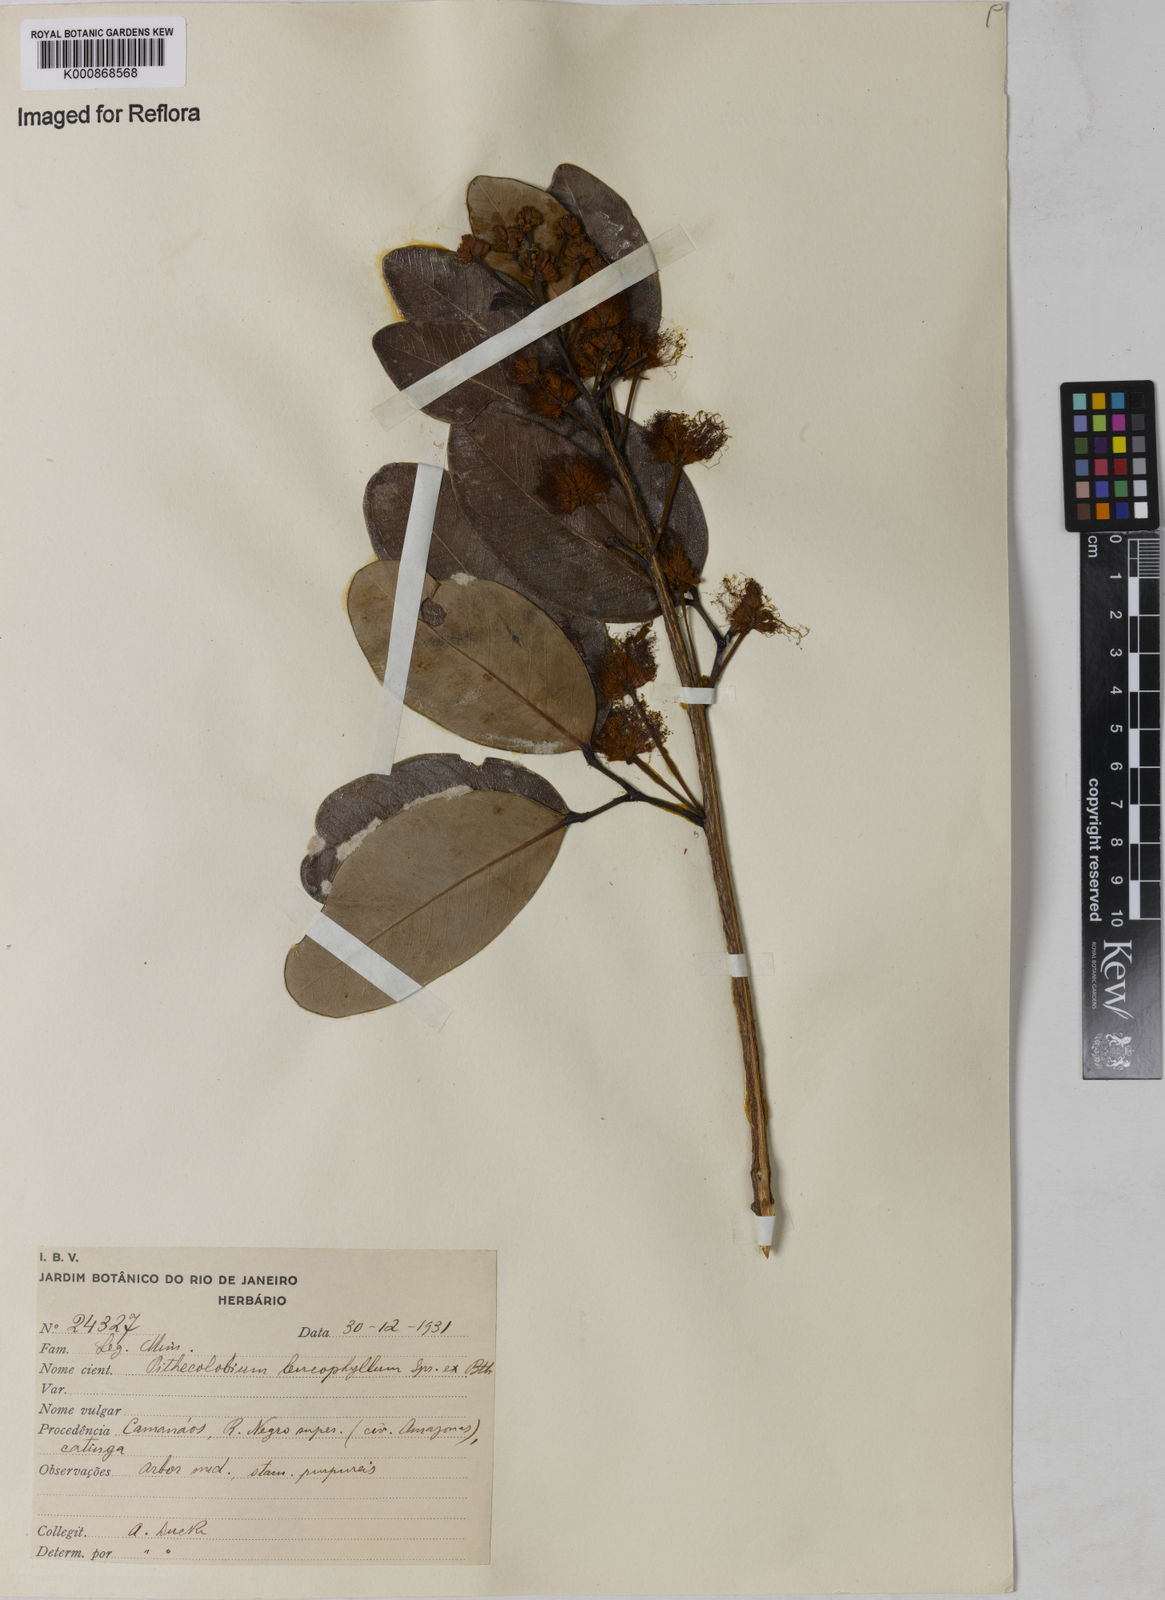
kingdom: Plantae
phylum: Tracheophyta
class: Magnoliopsida
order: Fabales
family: Fabaceae
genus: Jupunba
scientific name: Jupunba leucophylla
